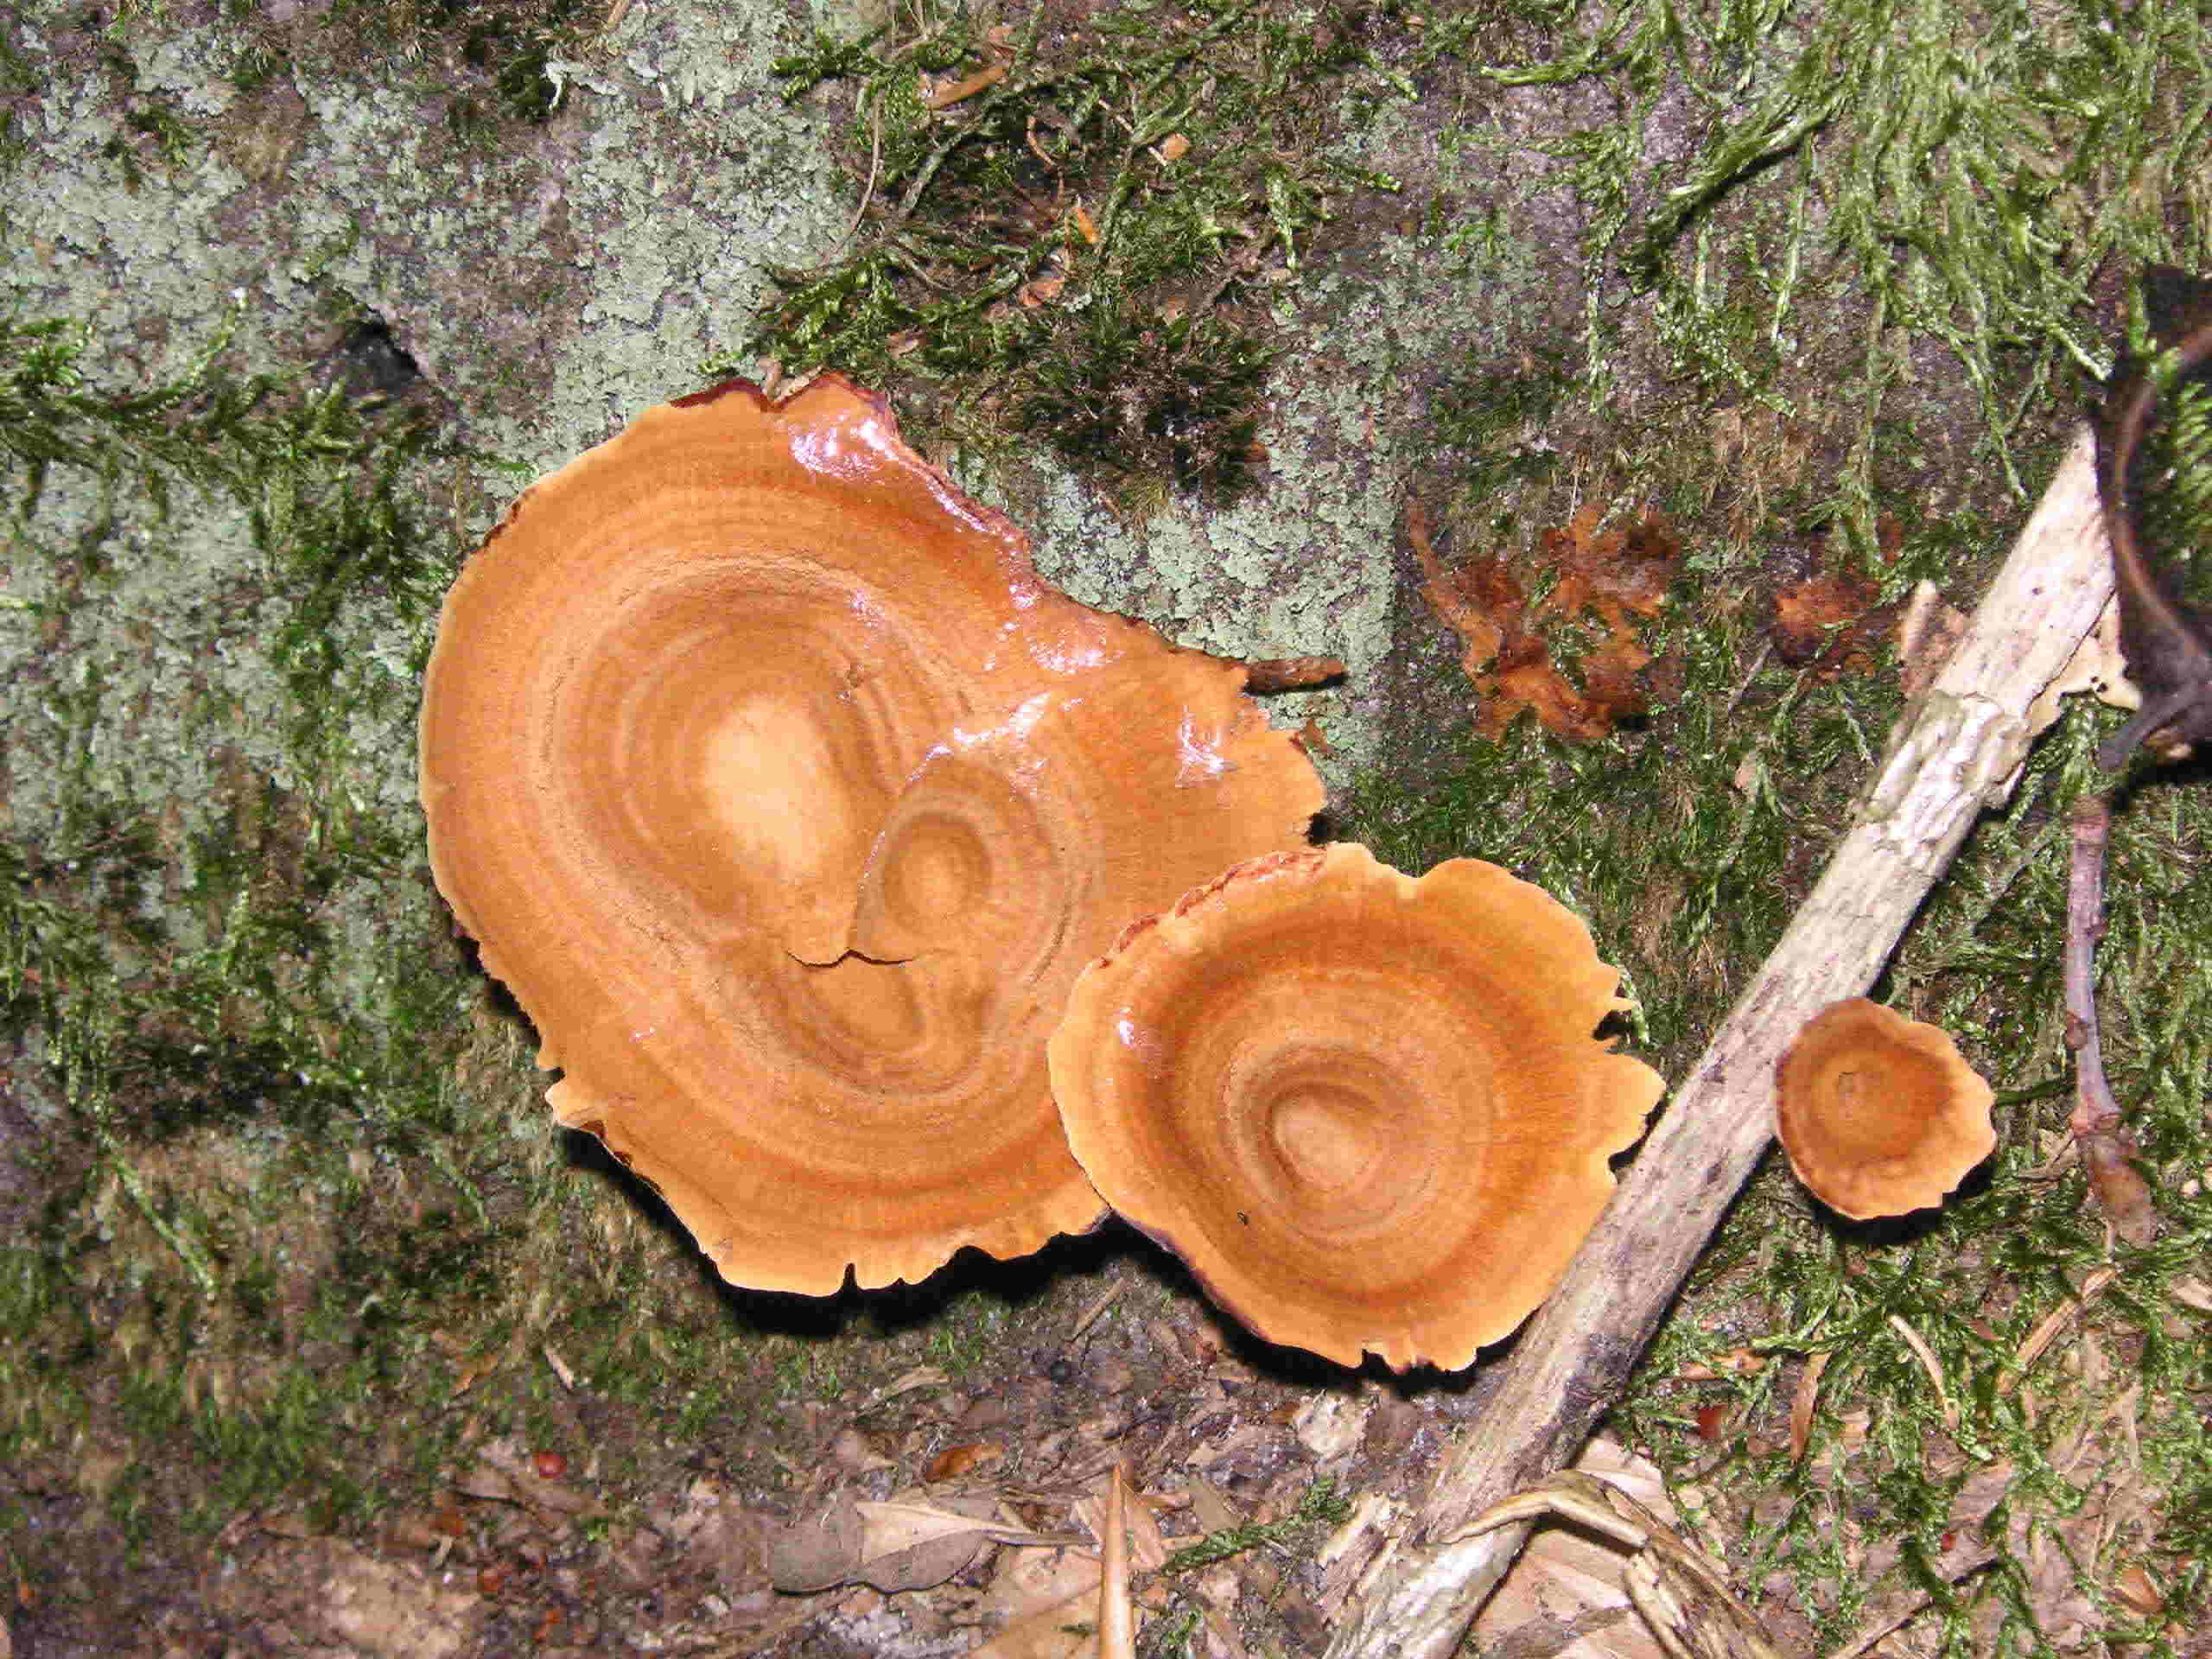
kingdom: Fungi
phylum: Basidiomycota
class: Agaricomycetes
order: Hymenochaetales
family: Hymenochaetaceae
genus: Coltricia
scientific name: Coltricia perennis
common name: almindelig sandporesvamp
